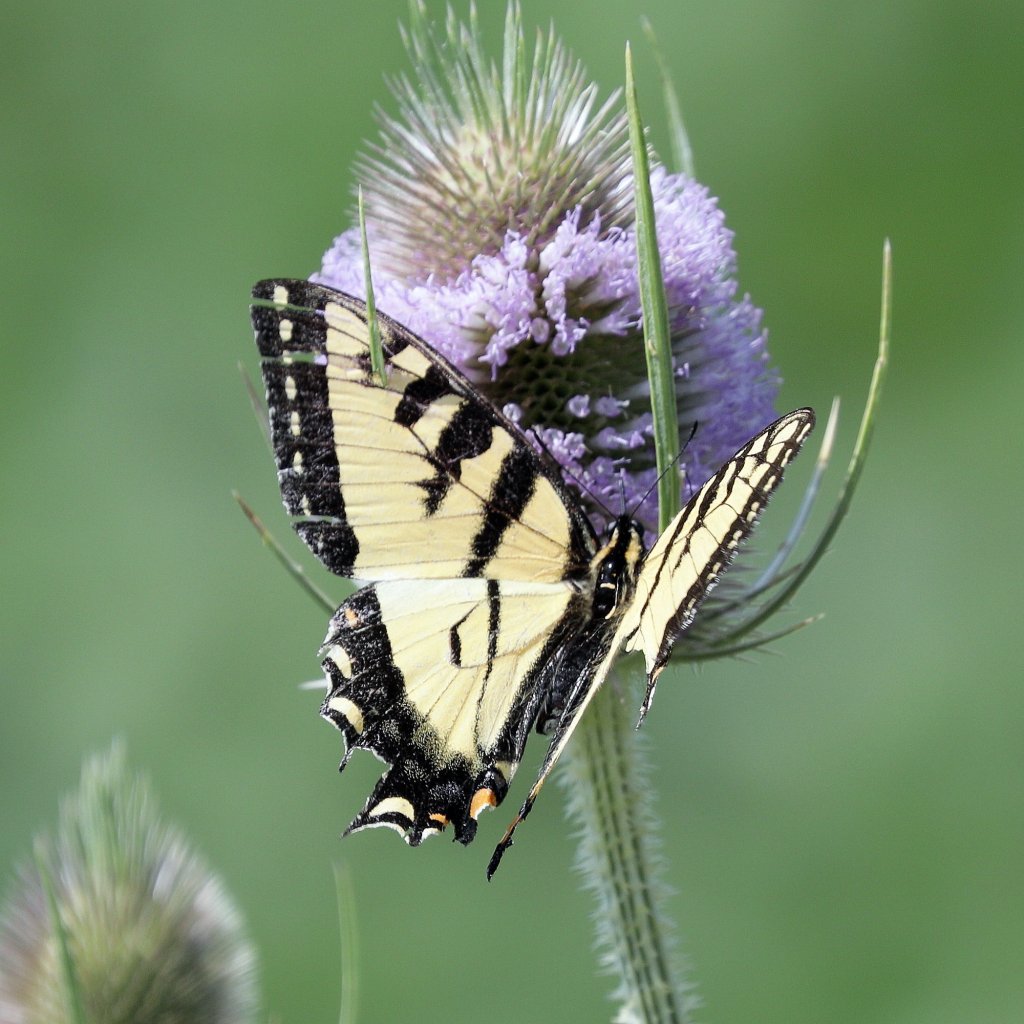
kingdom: Animalia
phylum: Arthropoda
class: Insecta
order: Lepidoptera
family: Papilionidae
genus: Pterourus
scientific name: Pterourus glaucus
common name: Eastern Tiger Swallowtail
